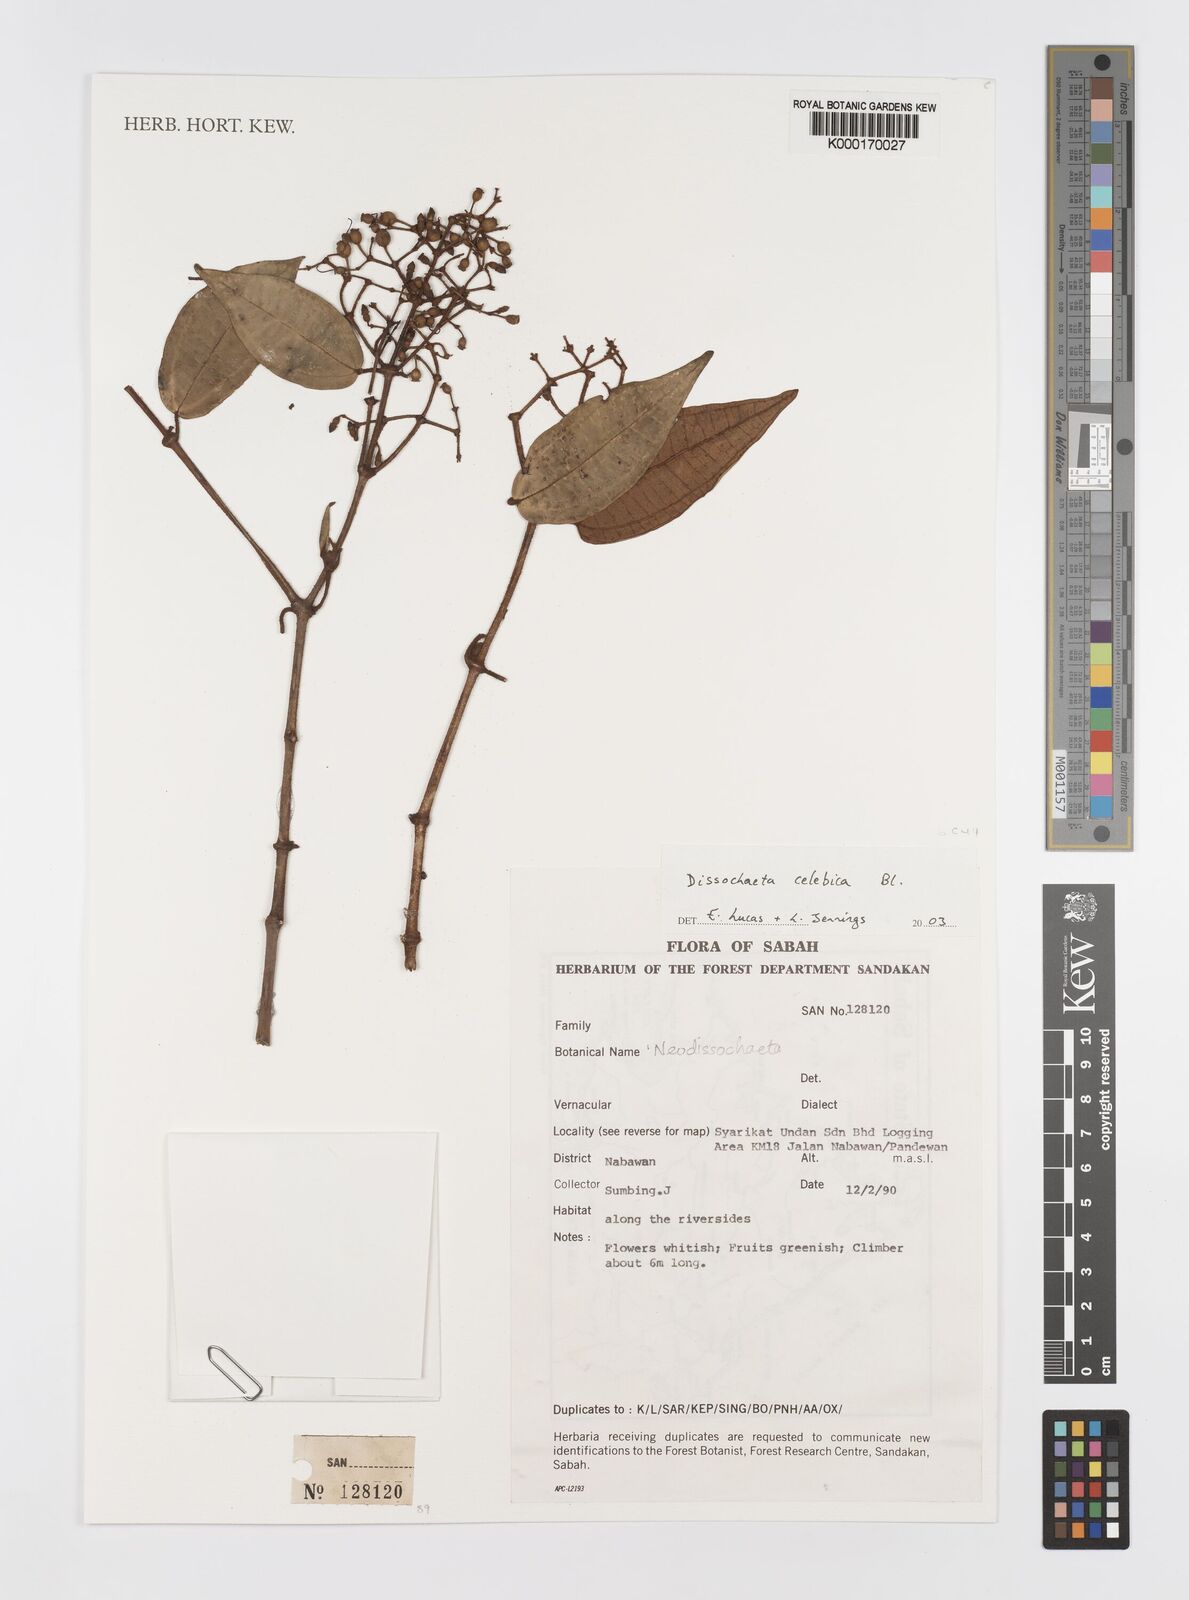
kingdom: Plantae
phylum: Tracheophyta
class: Magnoliopsida
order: Myrtales
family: Melastomataceae
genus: Dissochaeta
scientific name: Dissochaeta celebica
